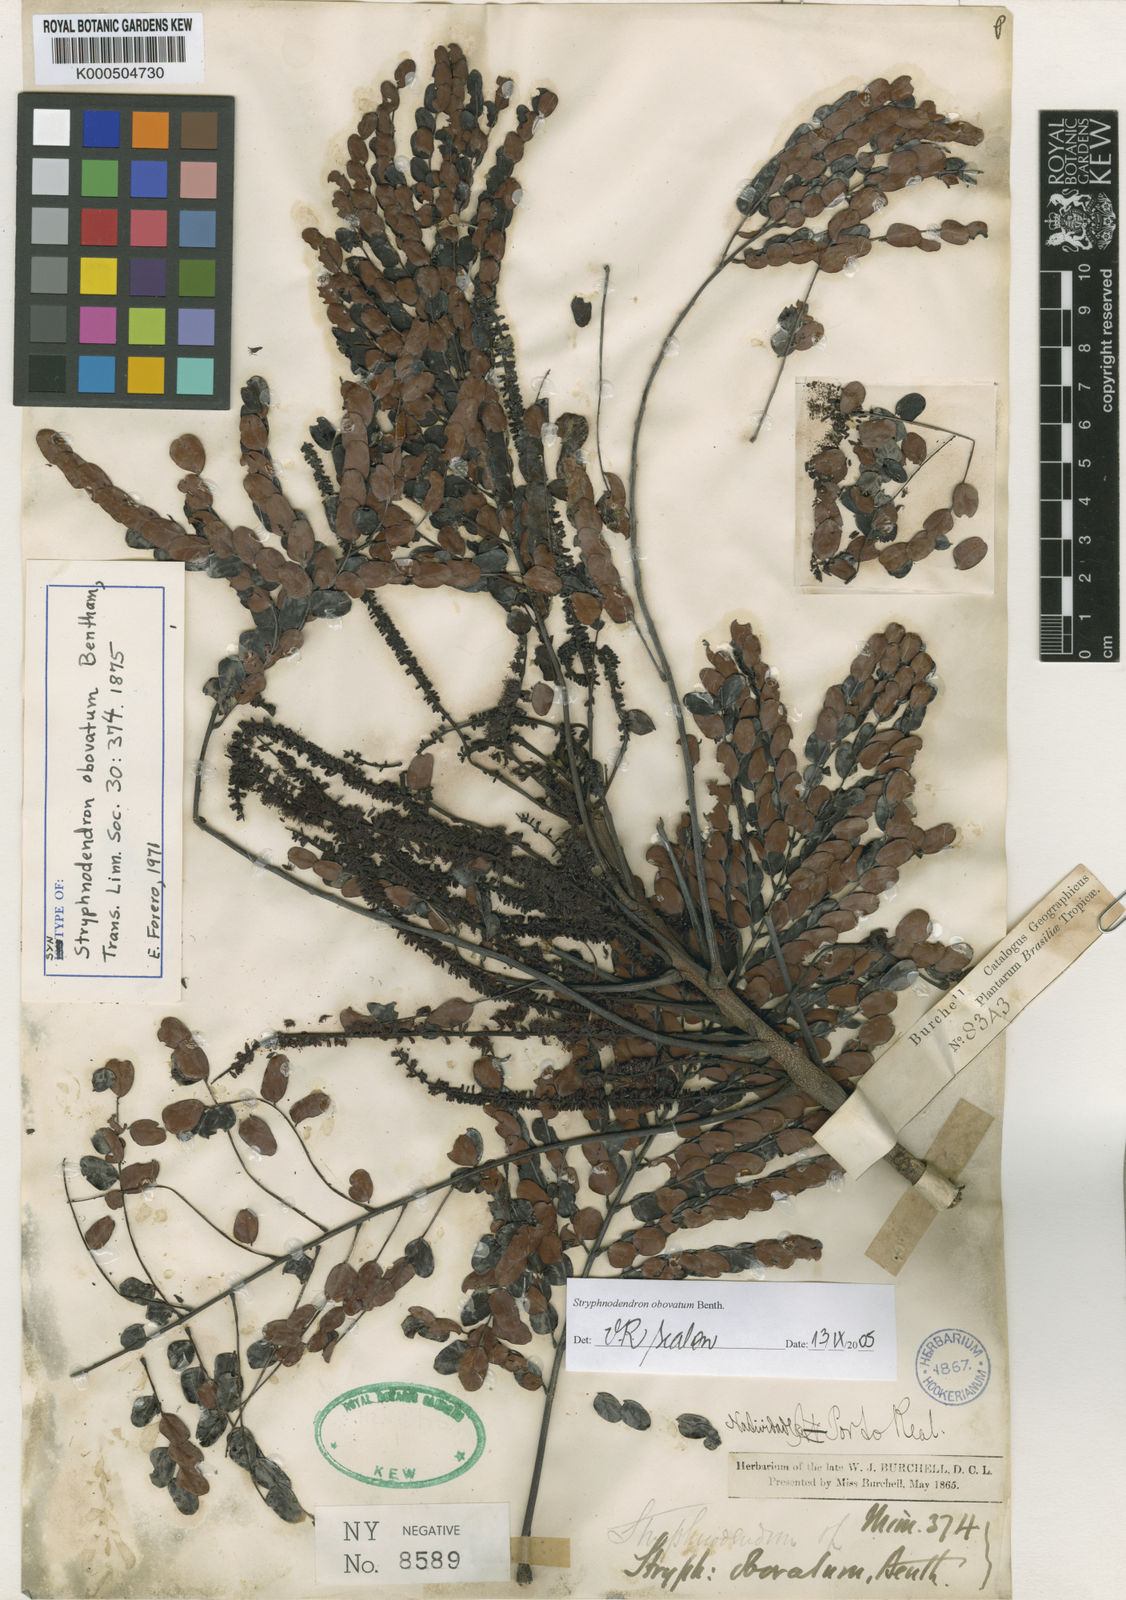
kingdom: Plantae
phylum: Tracheophyta
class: Magnoliopsida
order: Fabales
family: Fabaceae
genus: Stryphnodendron
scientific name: Stryphnodendron rotundifolium
